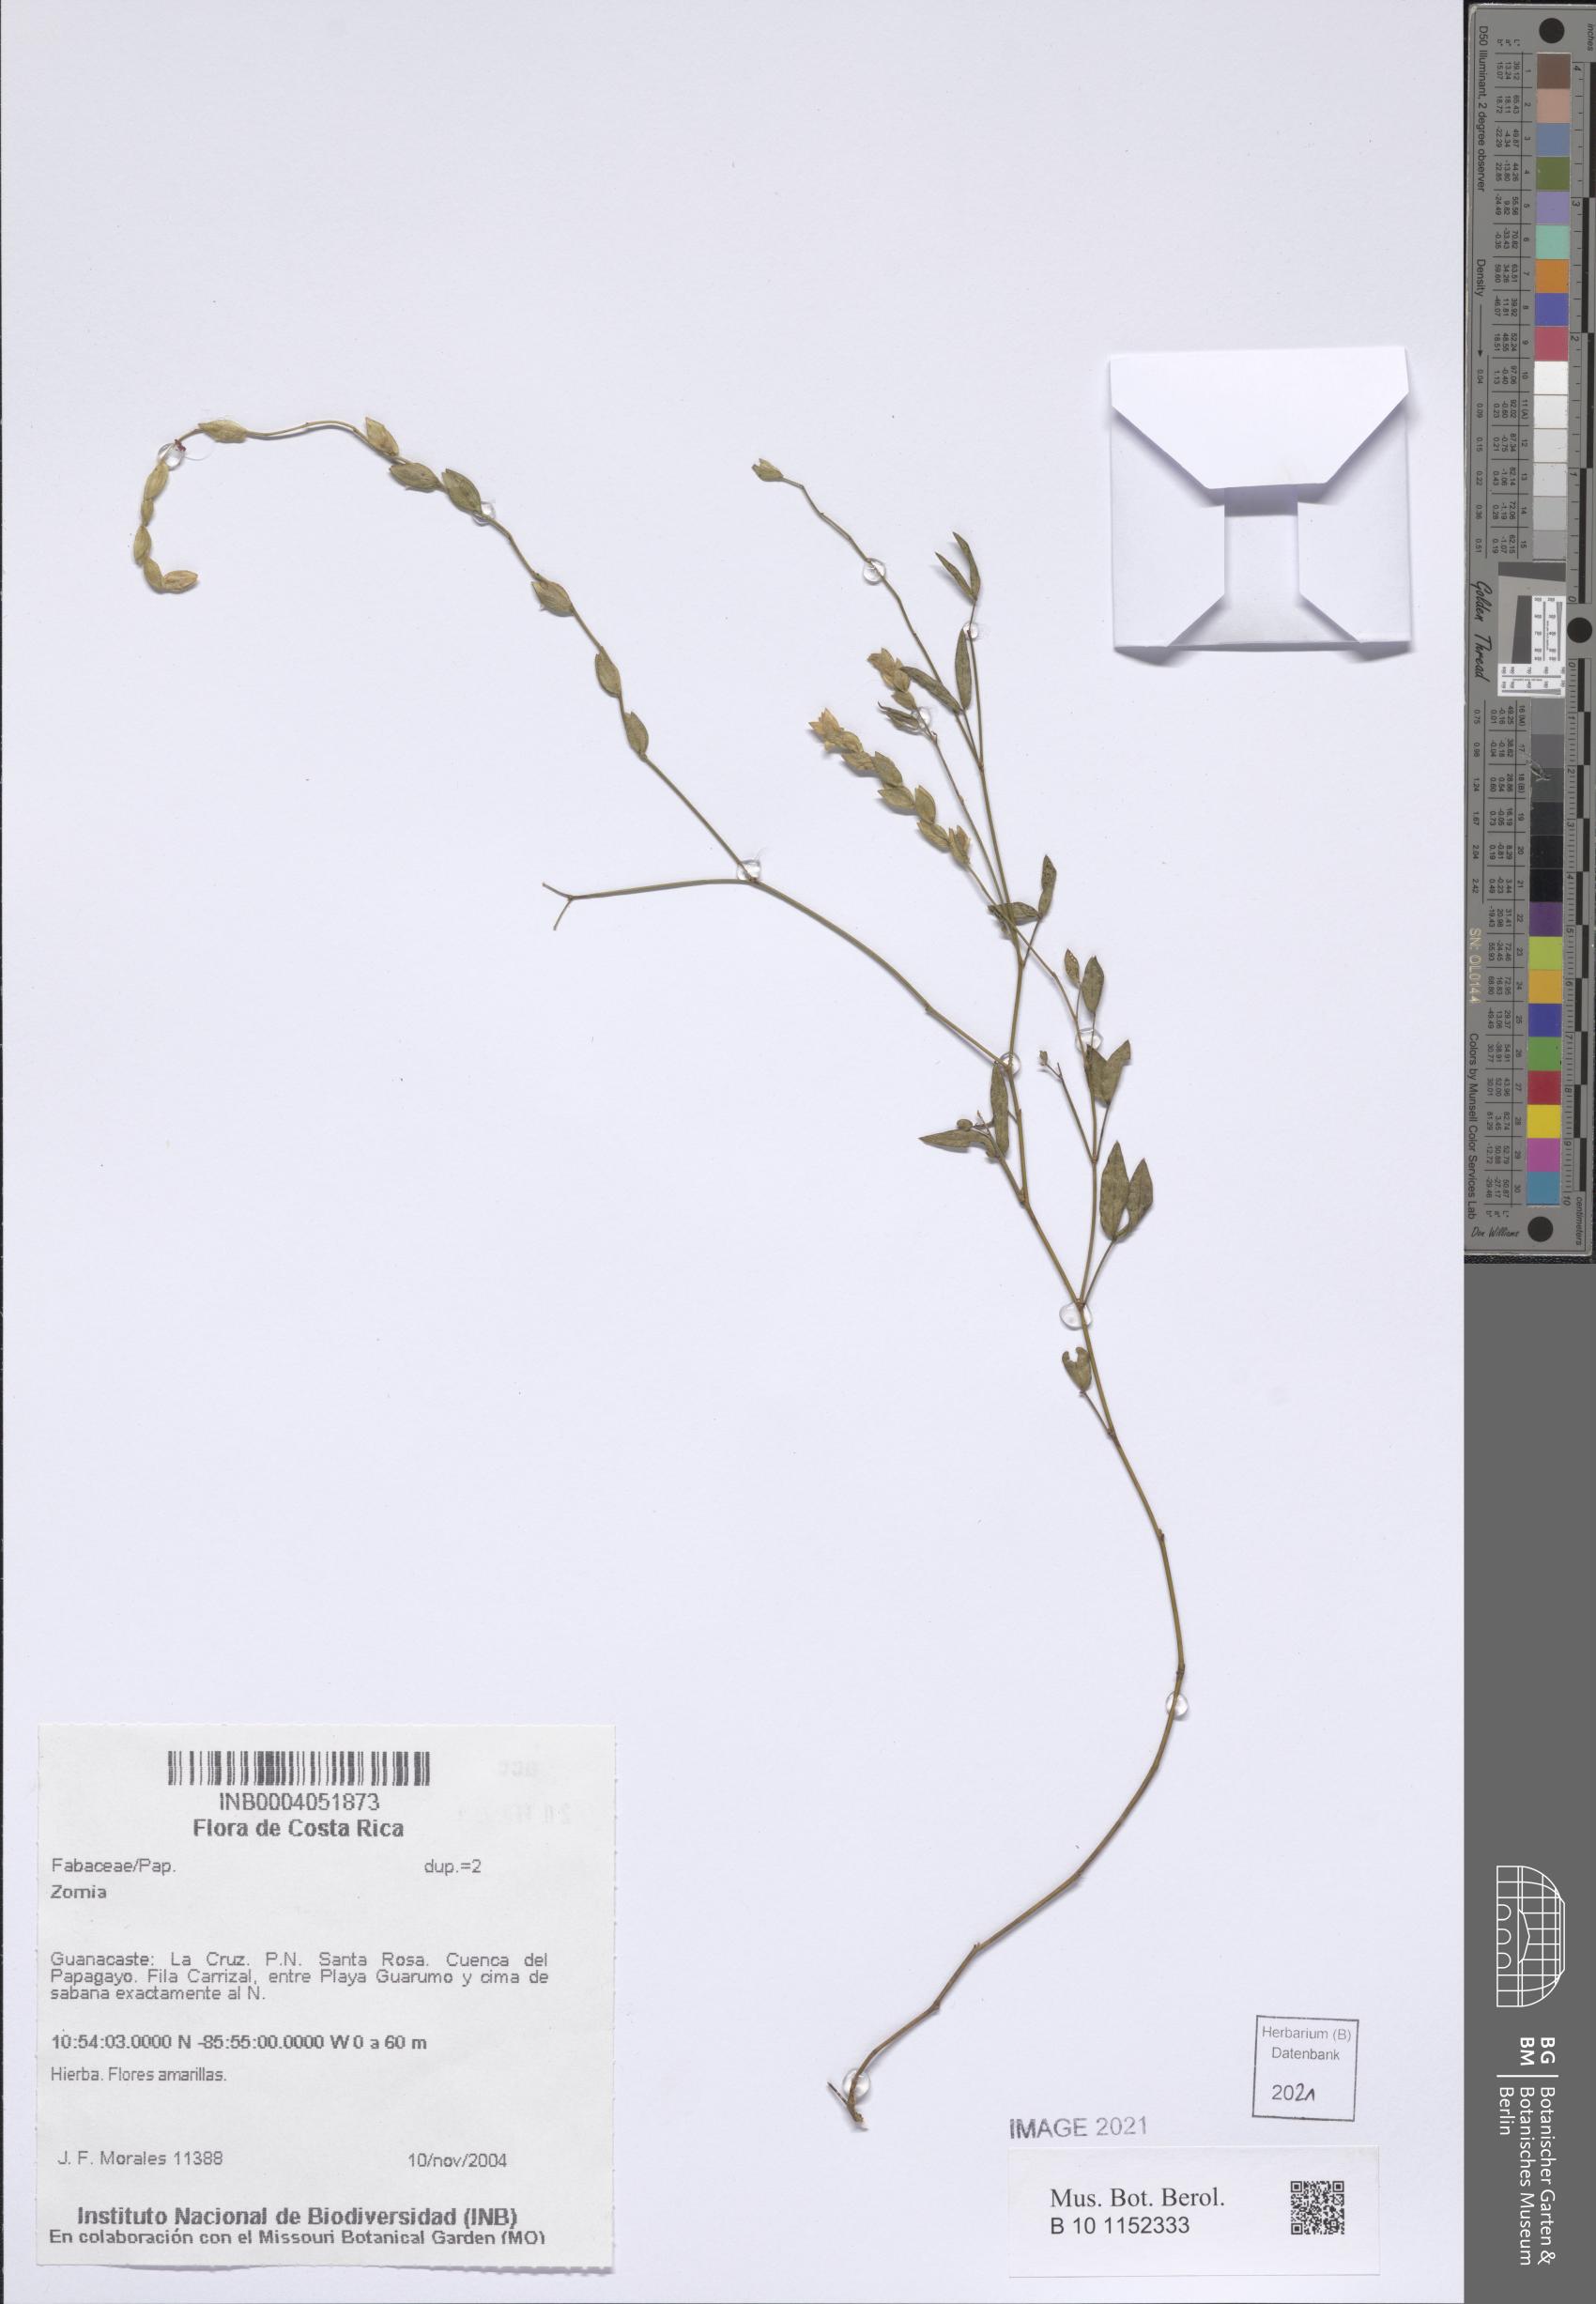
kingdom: Plantae
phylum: Tracheophyta
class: Magnoliopsida
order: Fabales
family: Fabaceae
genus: Zornia
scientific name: Zornia
